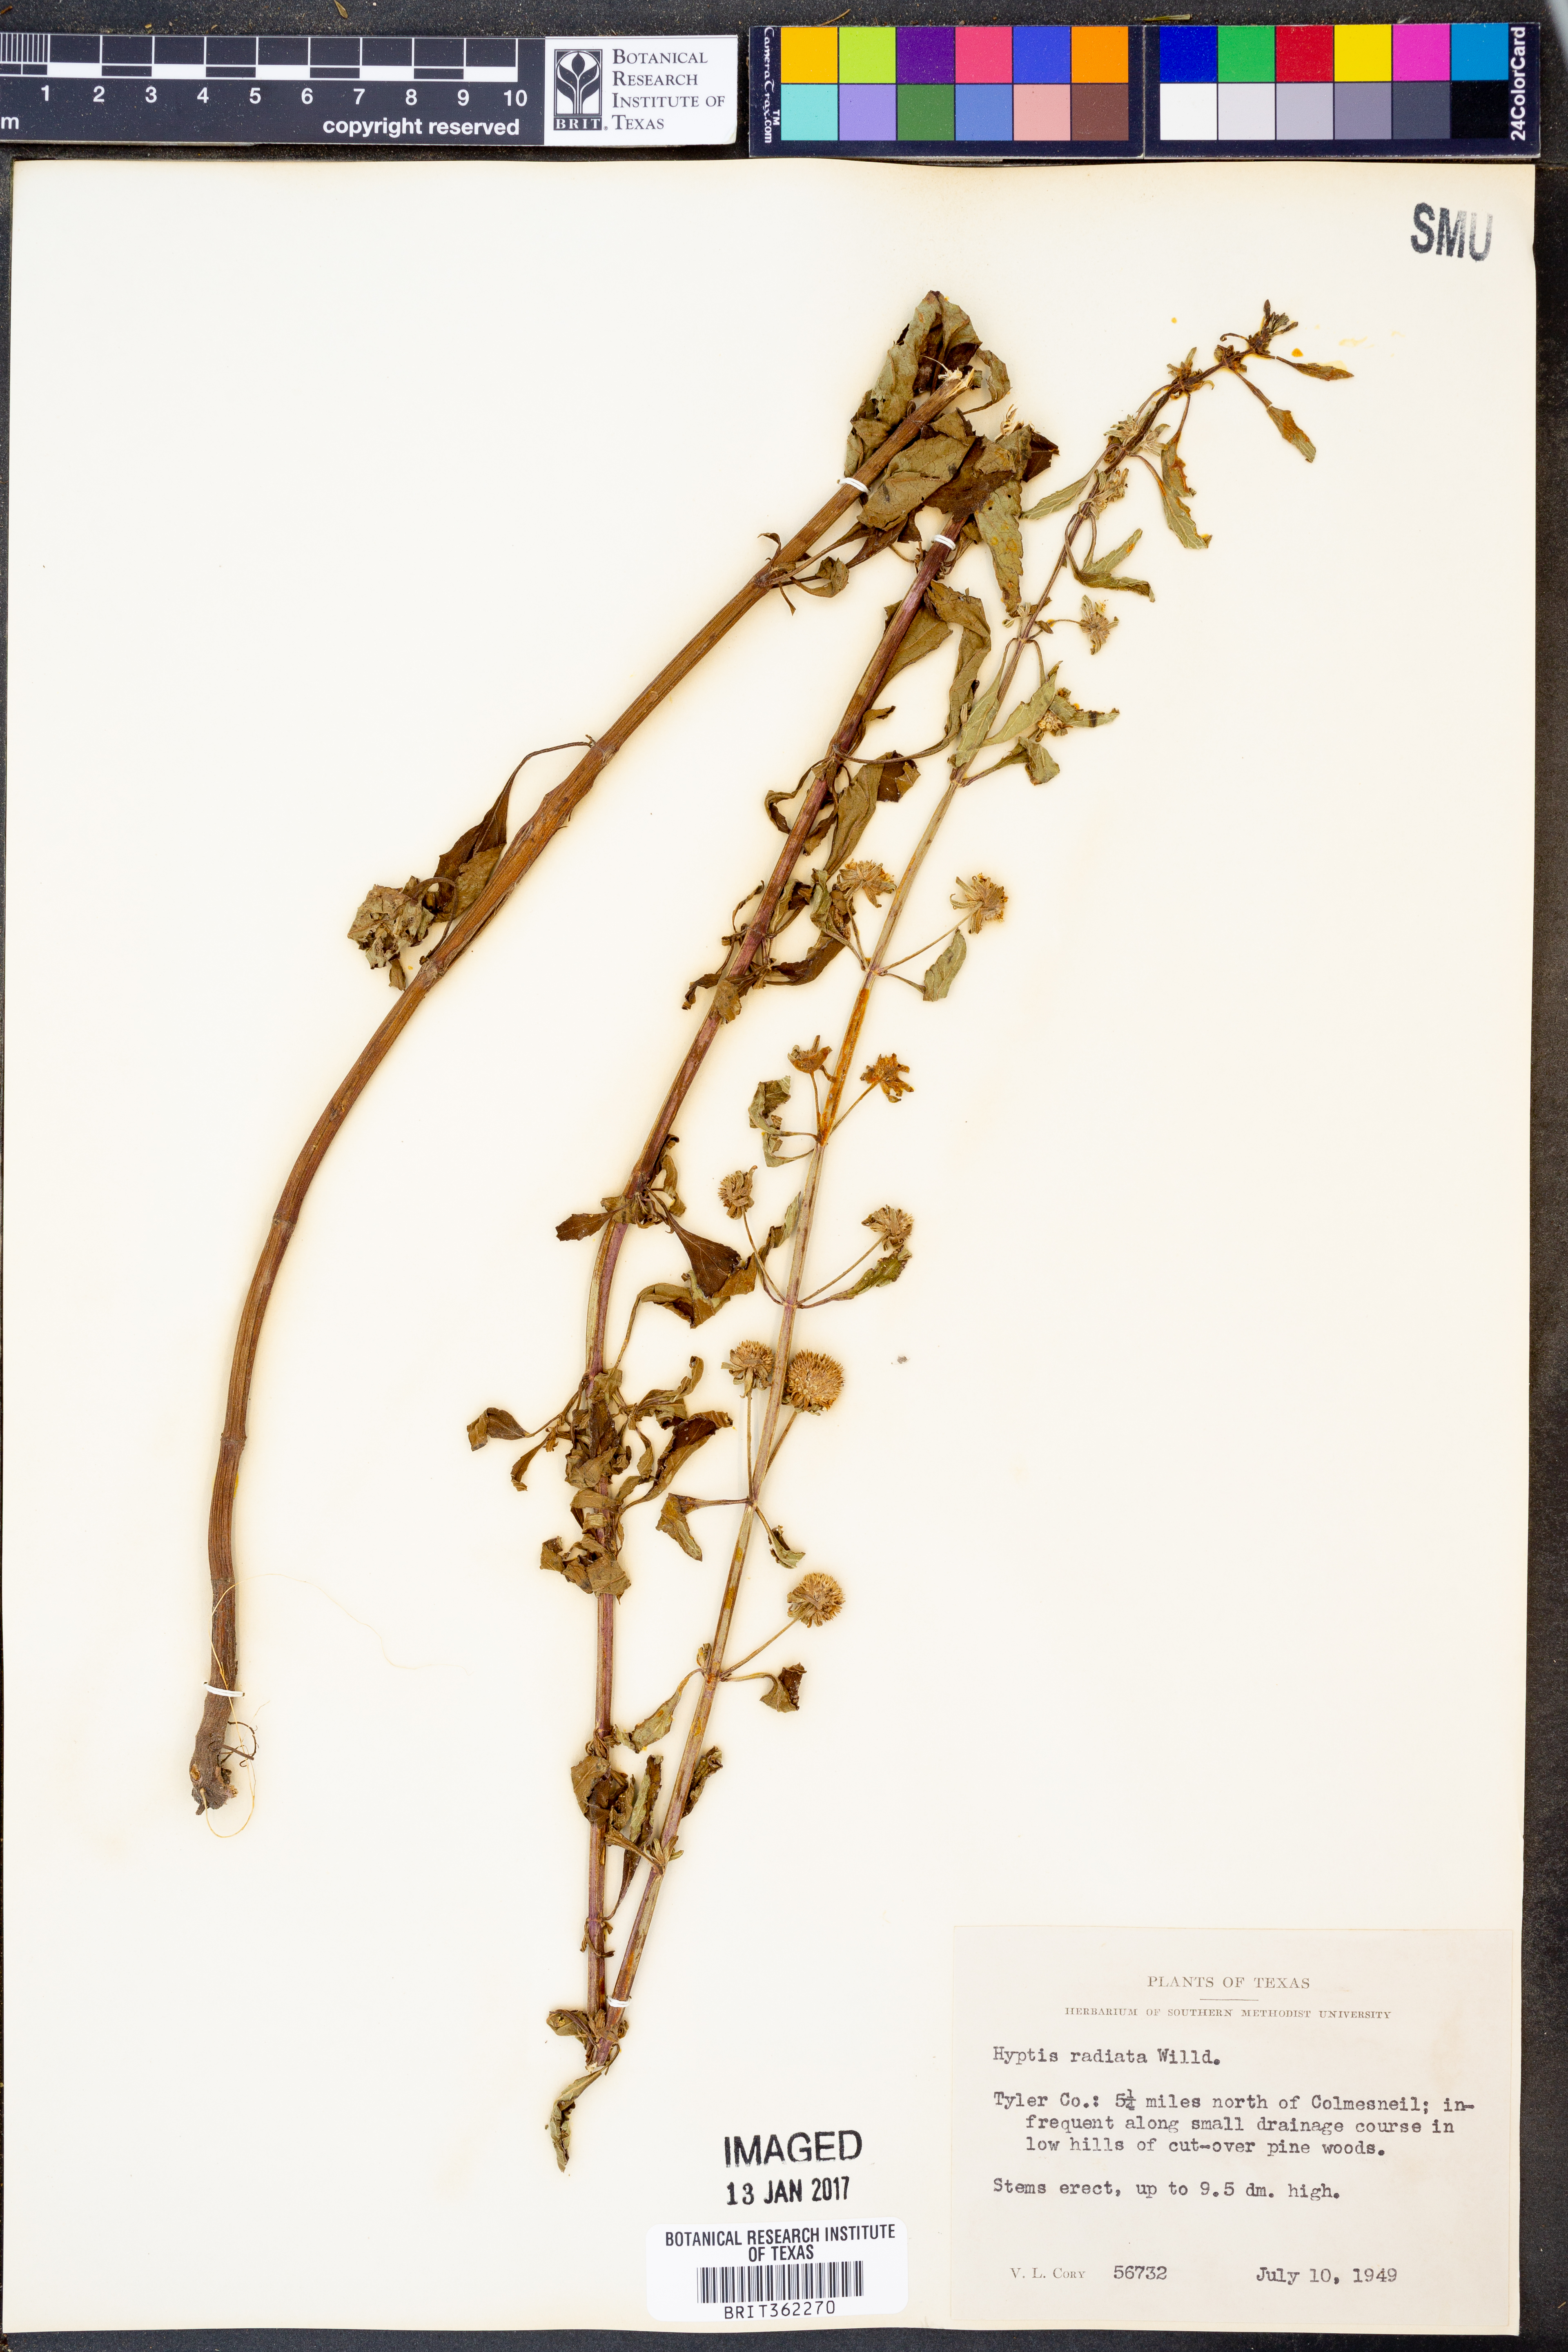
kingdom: Plantae
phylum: Tracheophyta
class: Magnoliopsida
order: Lamiales
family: Lamiaceae
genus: Hyptis
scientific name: Hyptis alata
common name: Cluster bush-mint
